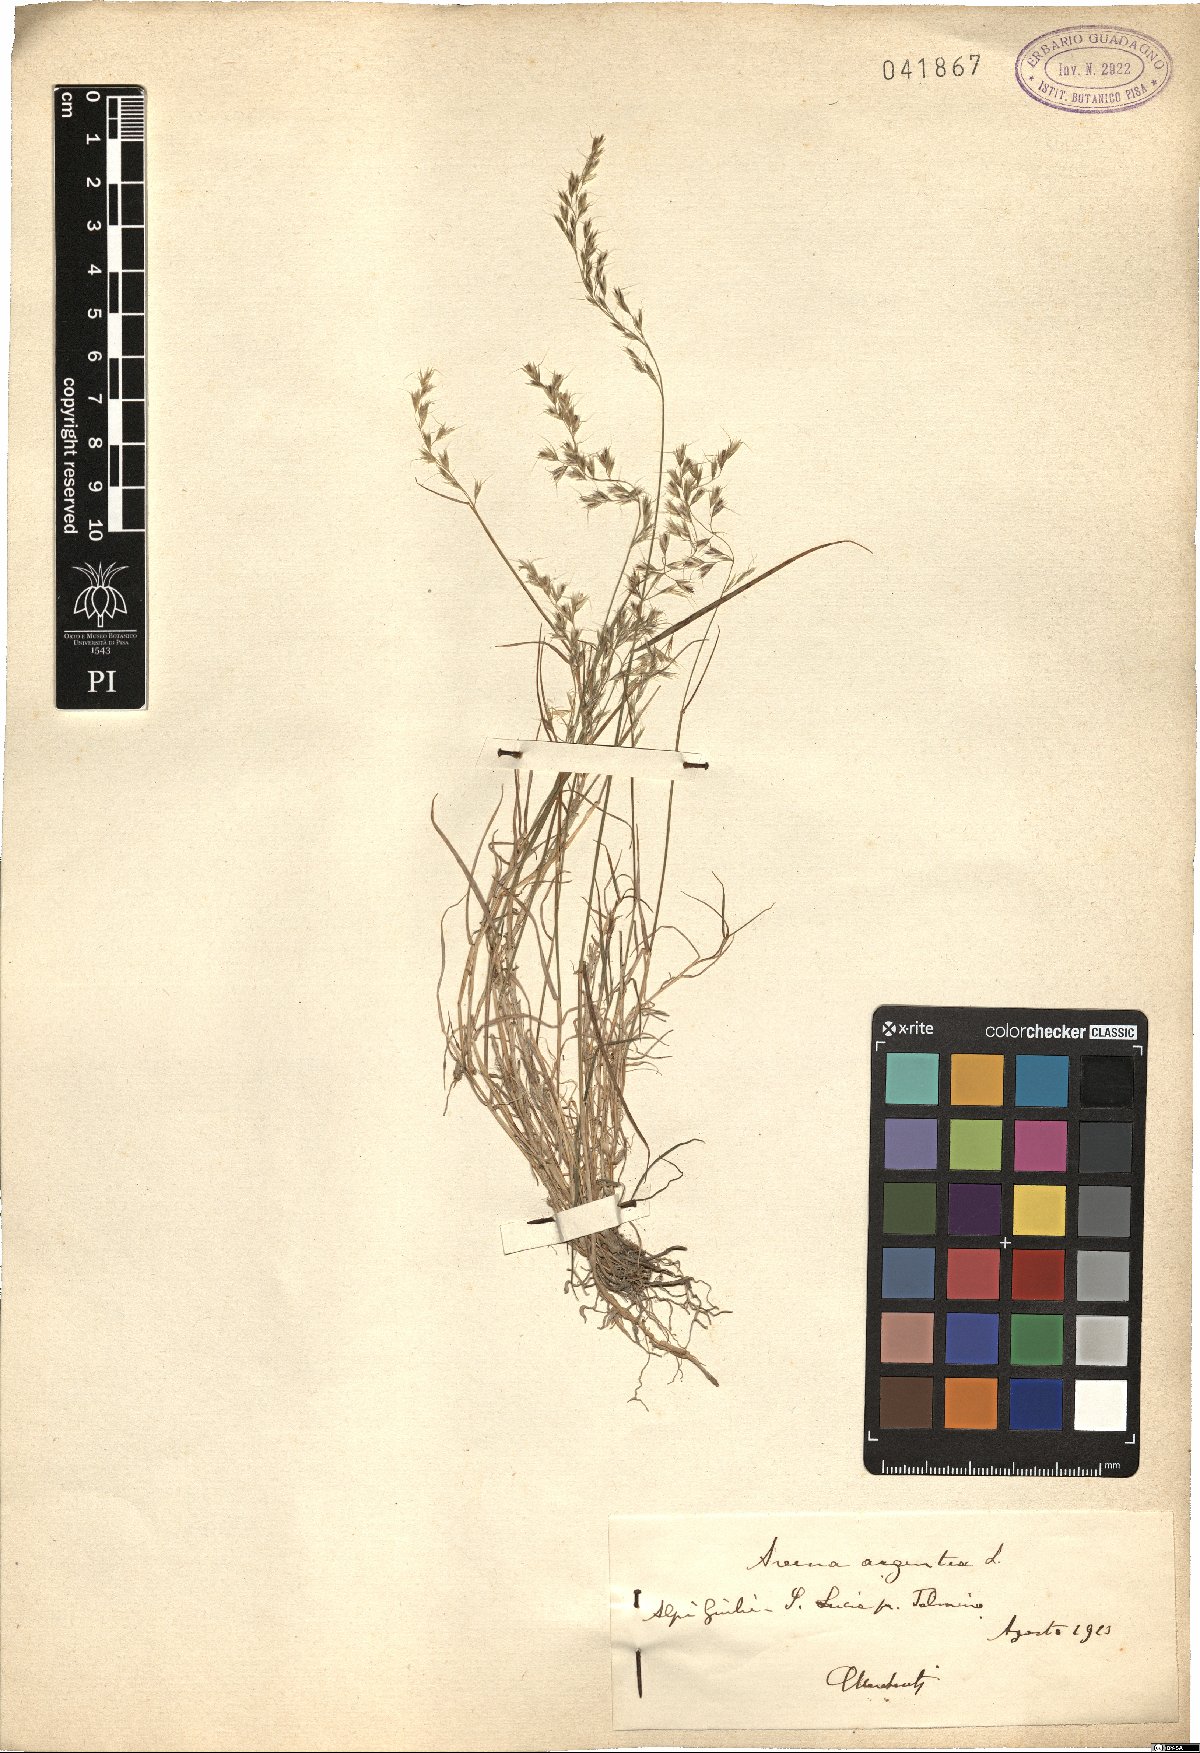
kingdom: Plantae
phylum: Tracheophyta
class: Liliopsida
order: Poales
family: Poaceae
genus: Trisetum
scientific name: Trisetum argenteum
